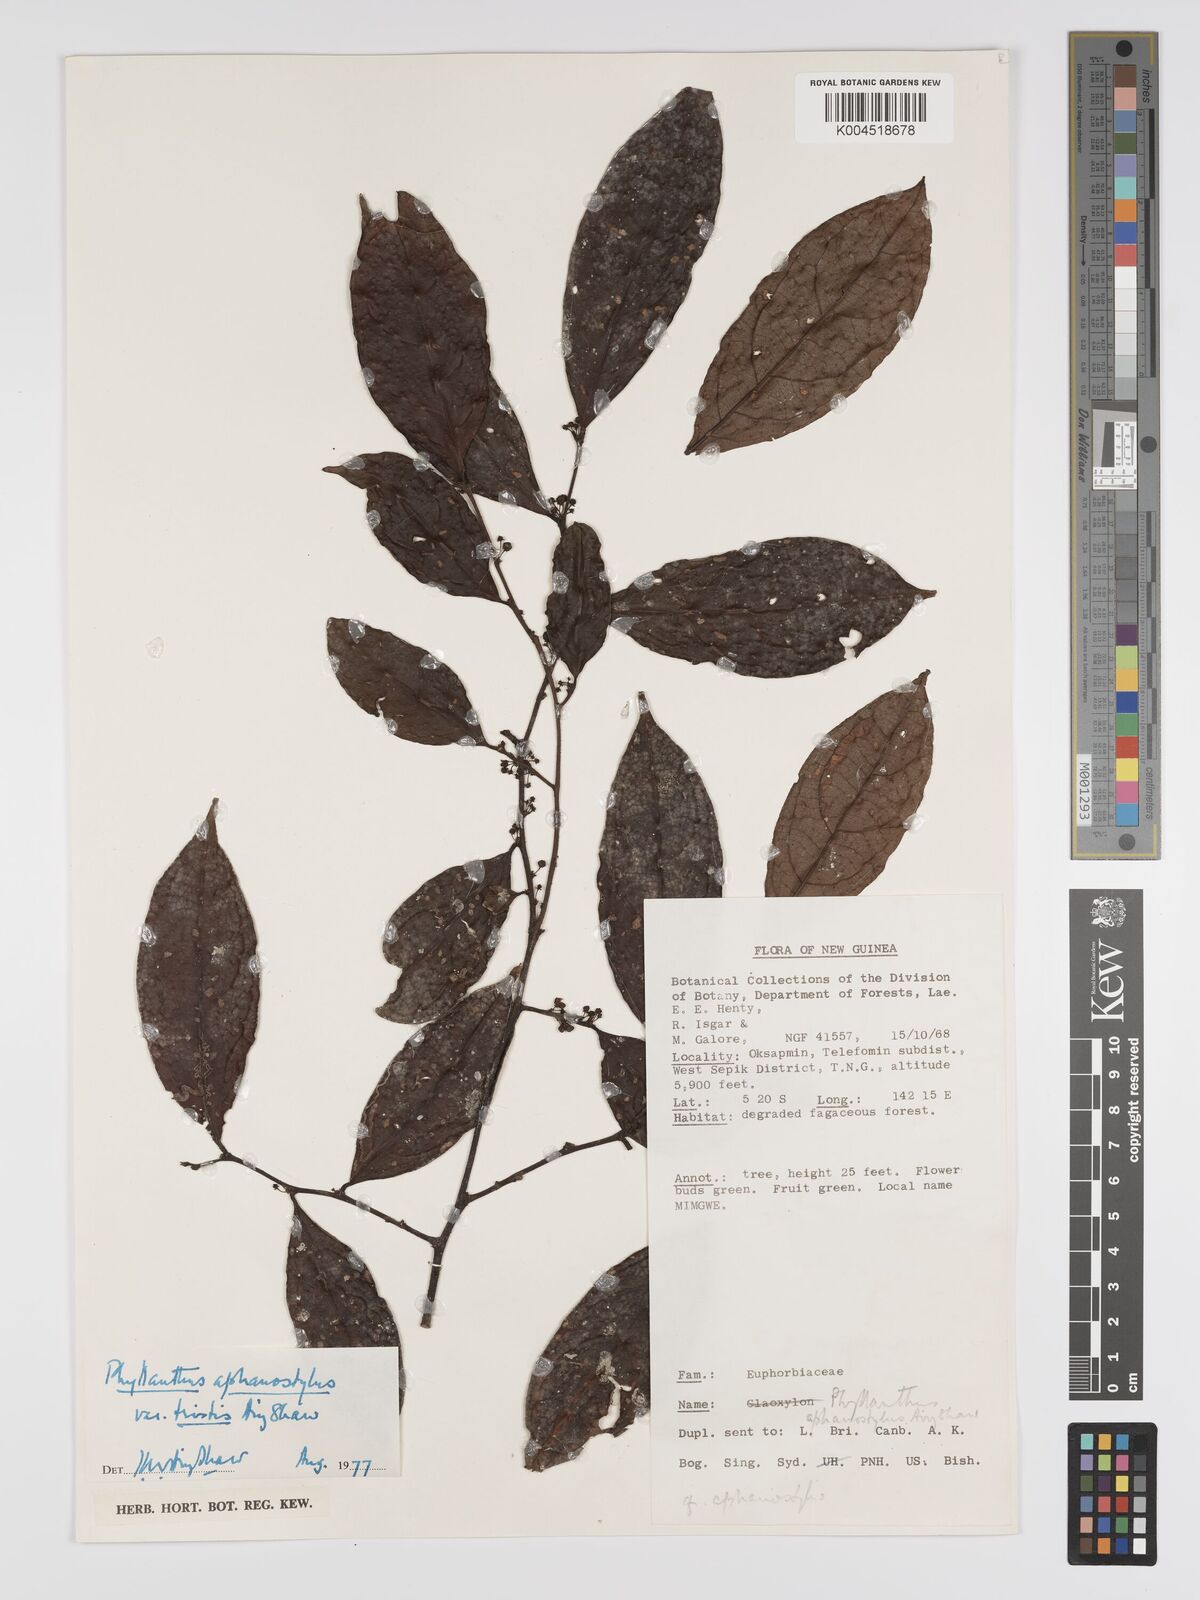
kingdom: Plantae
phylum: Tracheophyta
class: Magnoliopsida
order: Malpighiales
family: Phyllanthaceae
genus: Phyllanthus
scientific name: Phyllanthus aphanostylus
